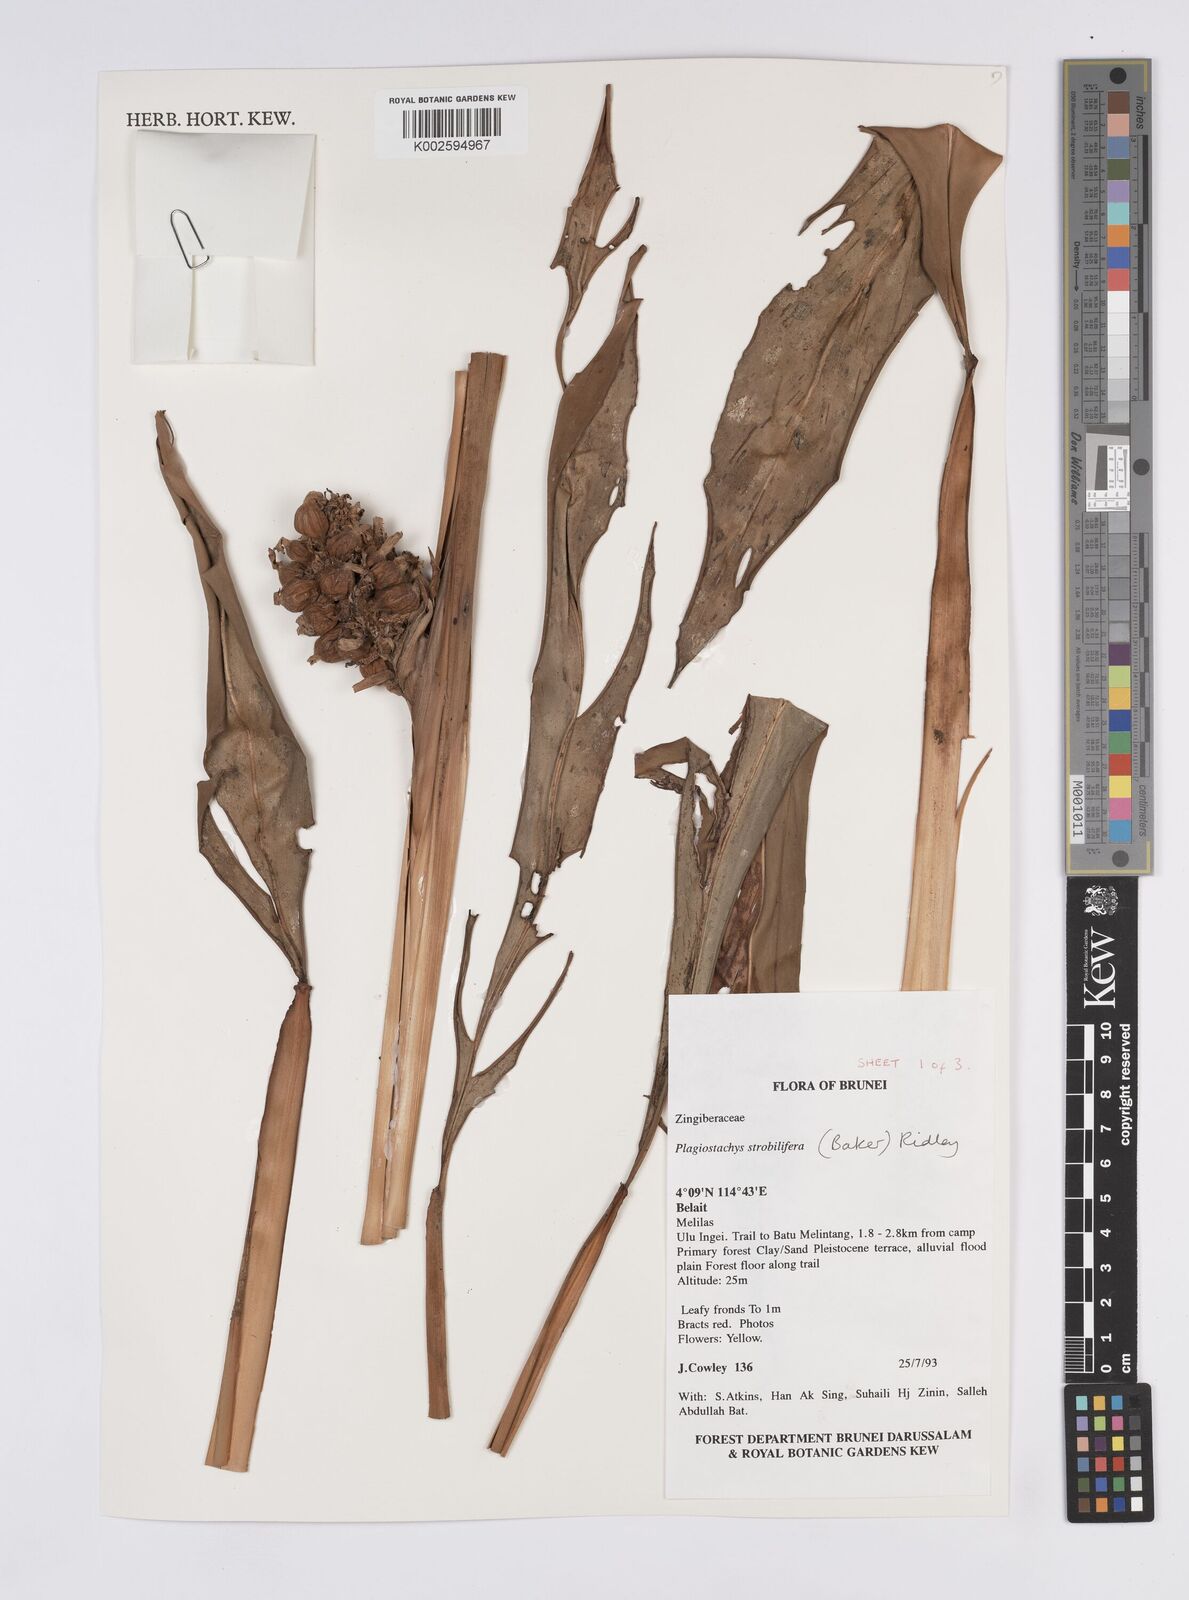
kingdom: Plantae
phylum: Tracheophyta
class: Liliopsida
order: Zingiberales
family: Zingiberaceae
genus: Plagiostachys
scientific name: Plagiostachys strobilifera
